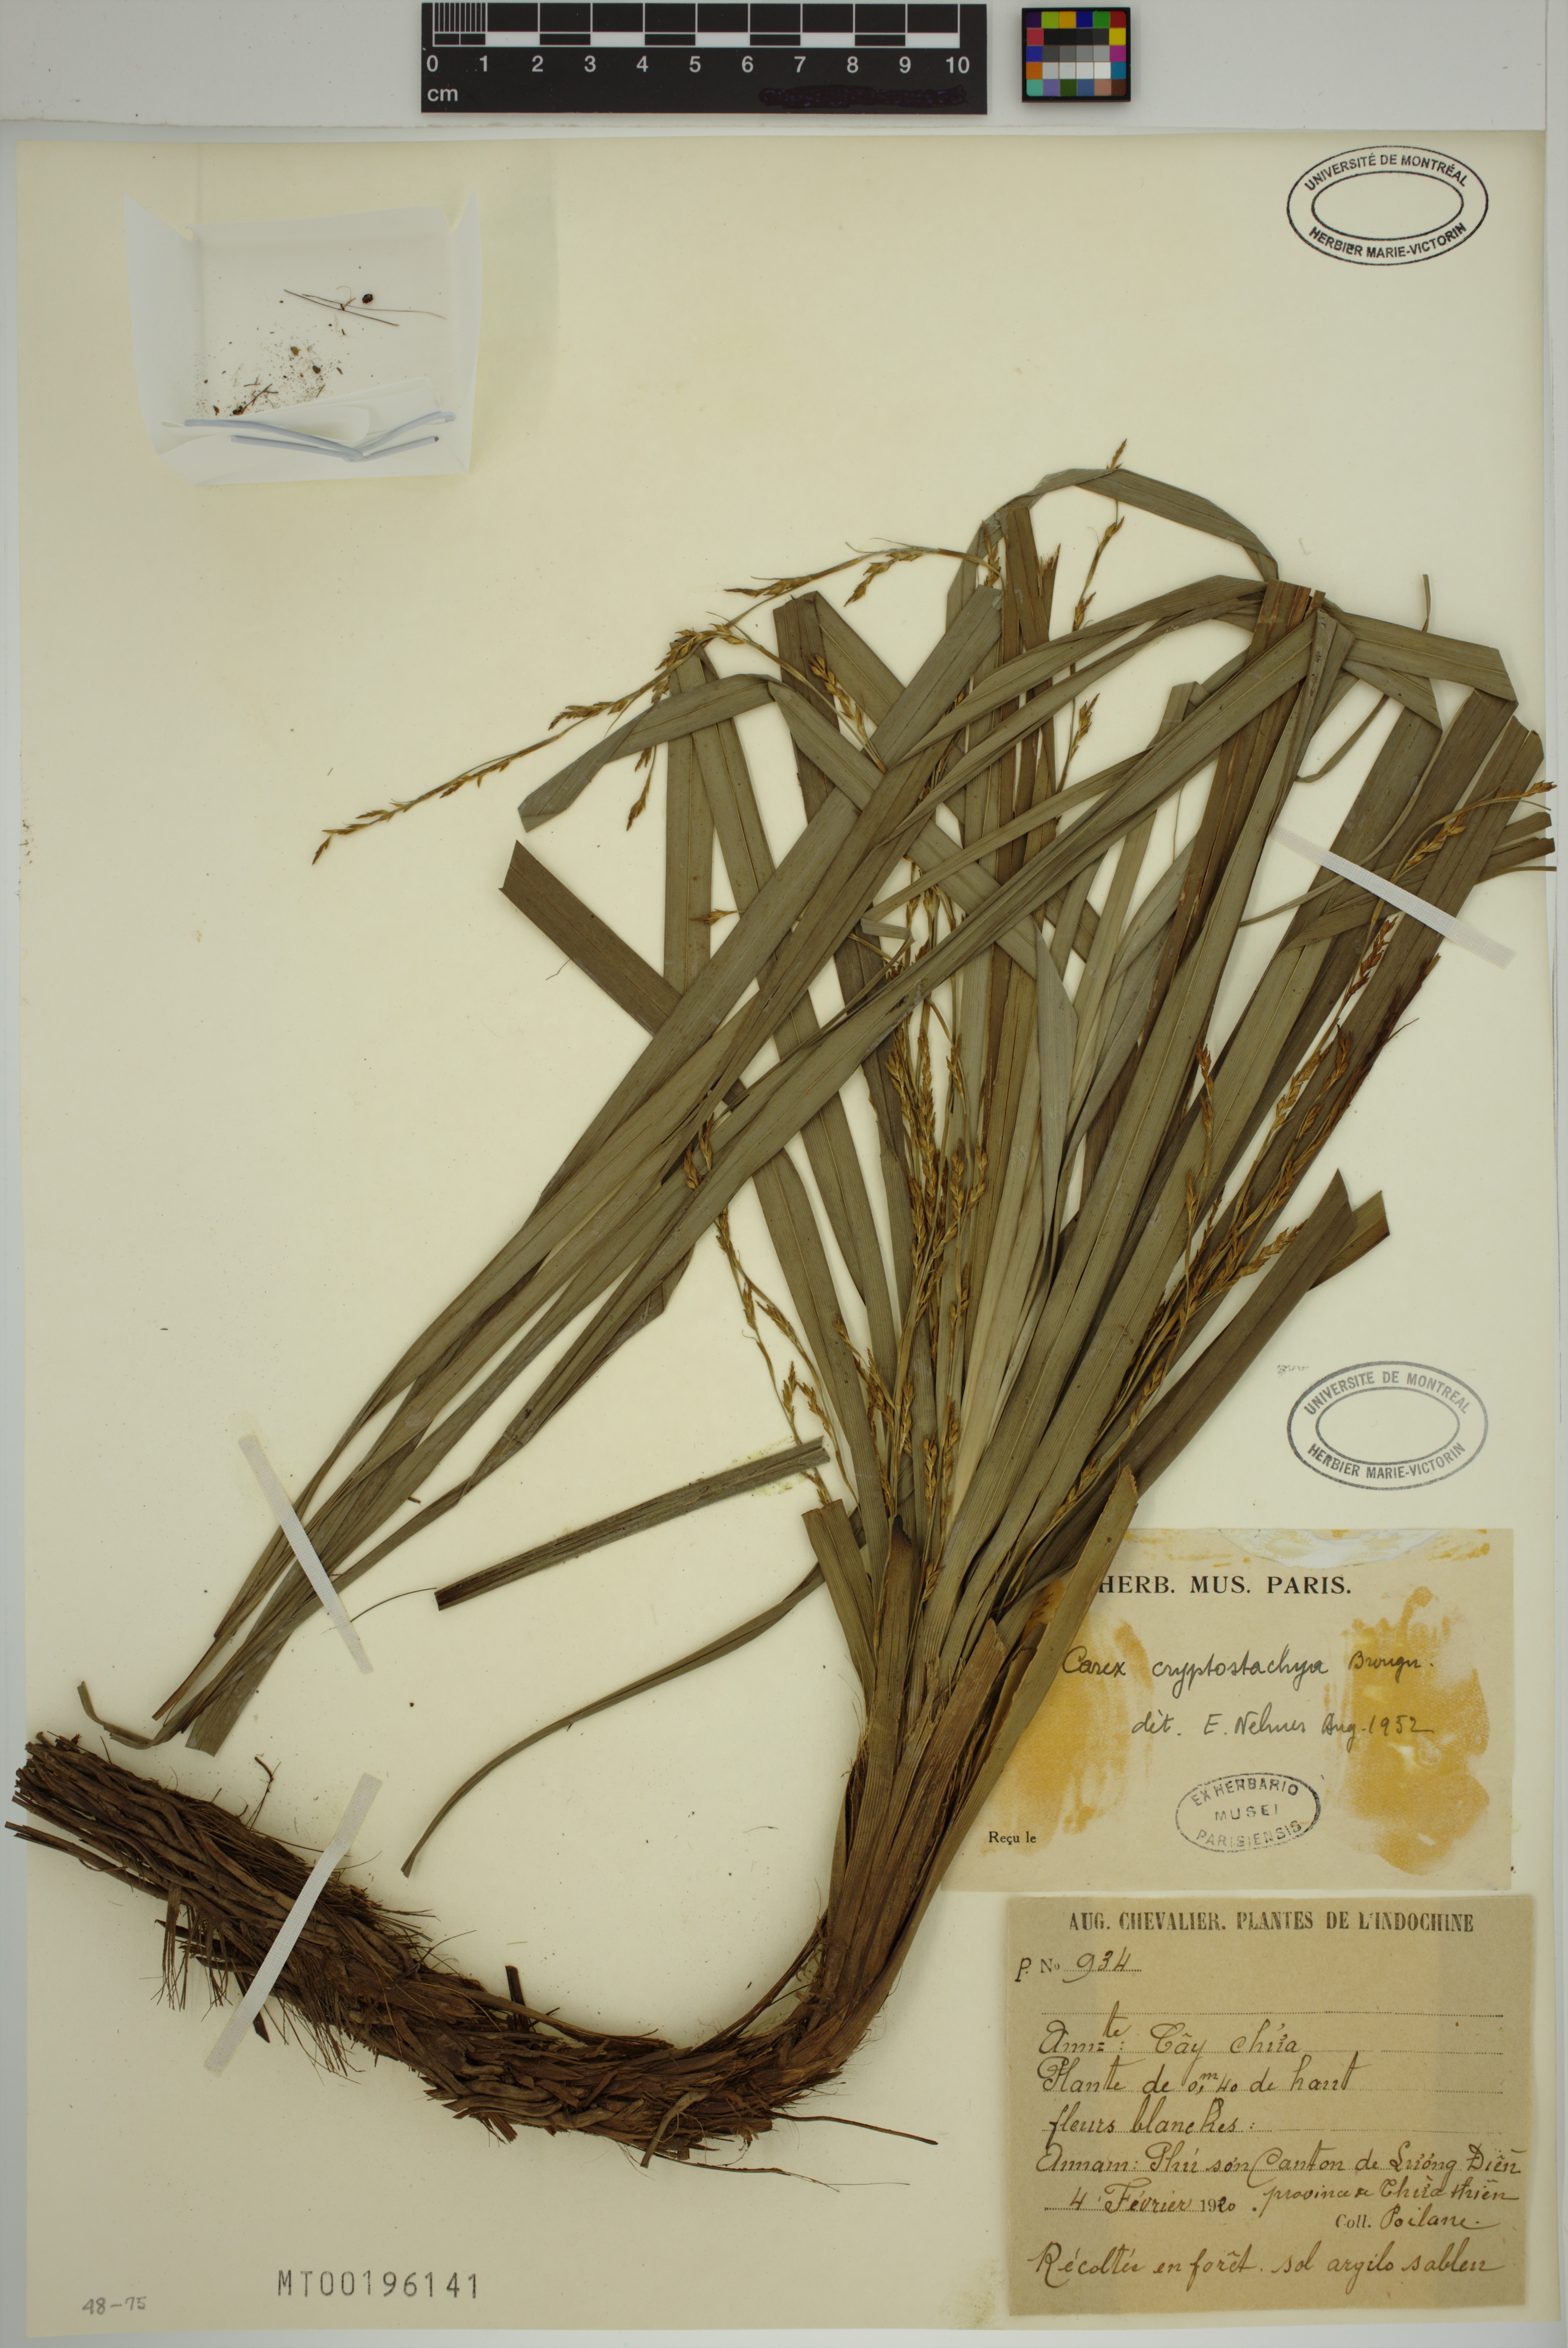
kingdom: Plantae
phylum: Tracheophyta
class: Liliopsida
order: Poales
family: Cyperaceae
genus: Carex
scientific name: Carex cryptostachys
